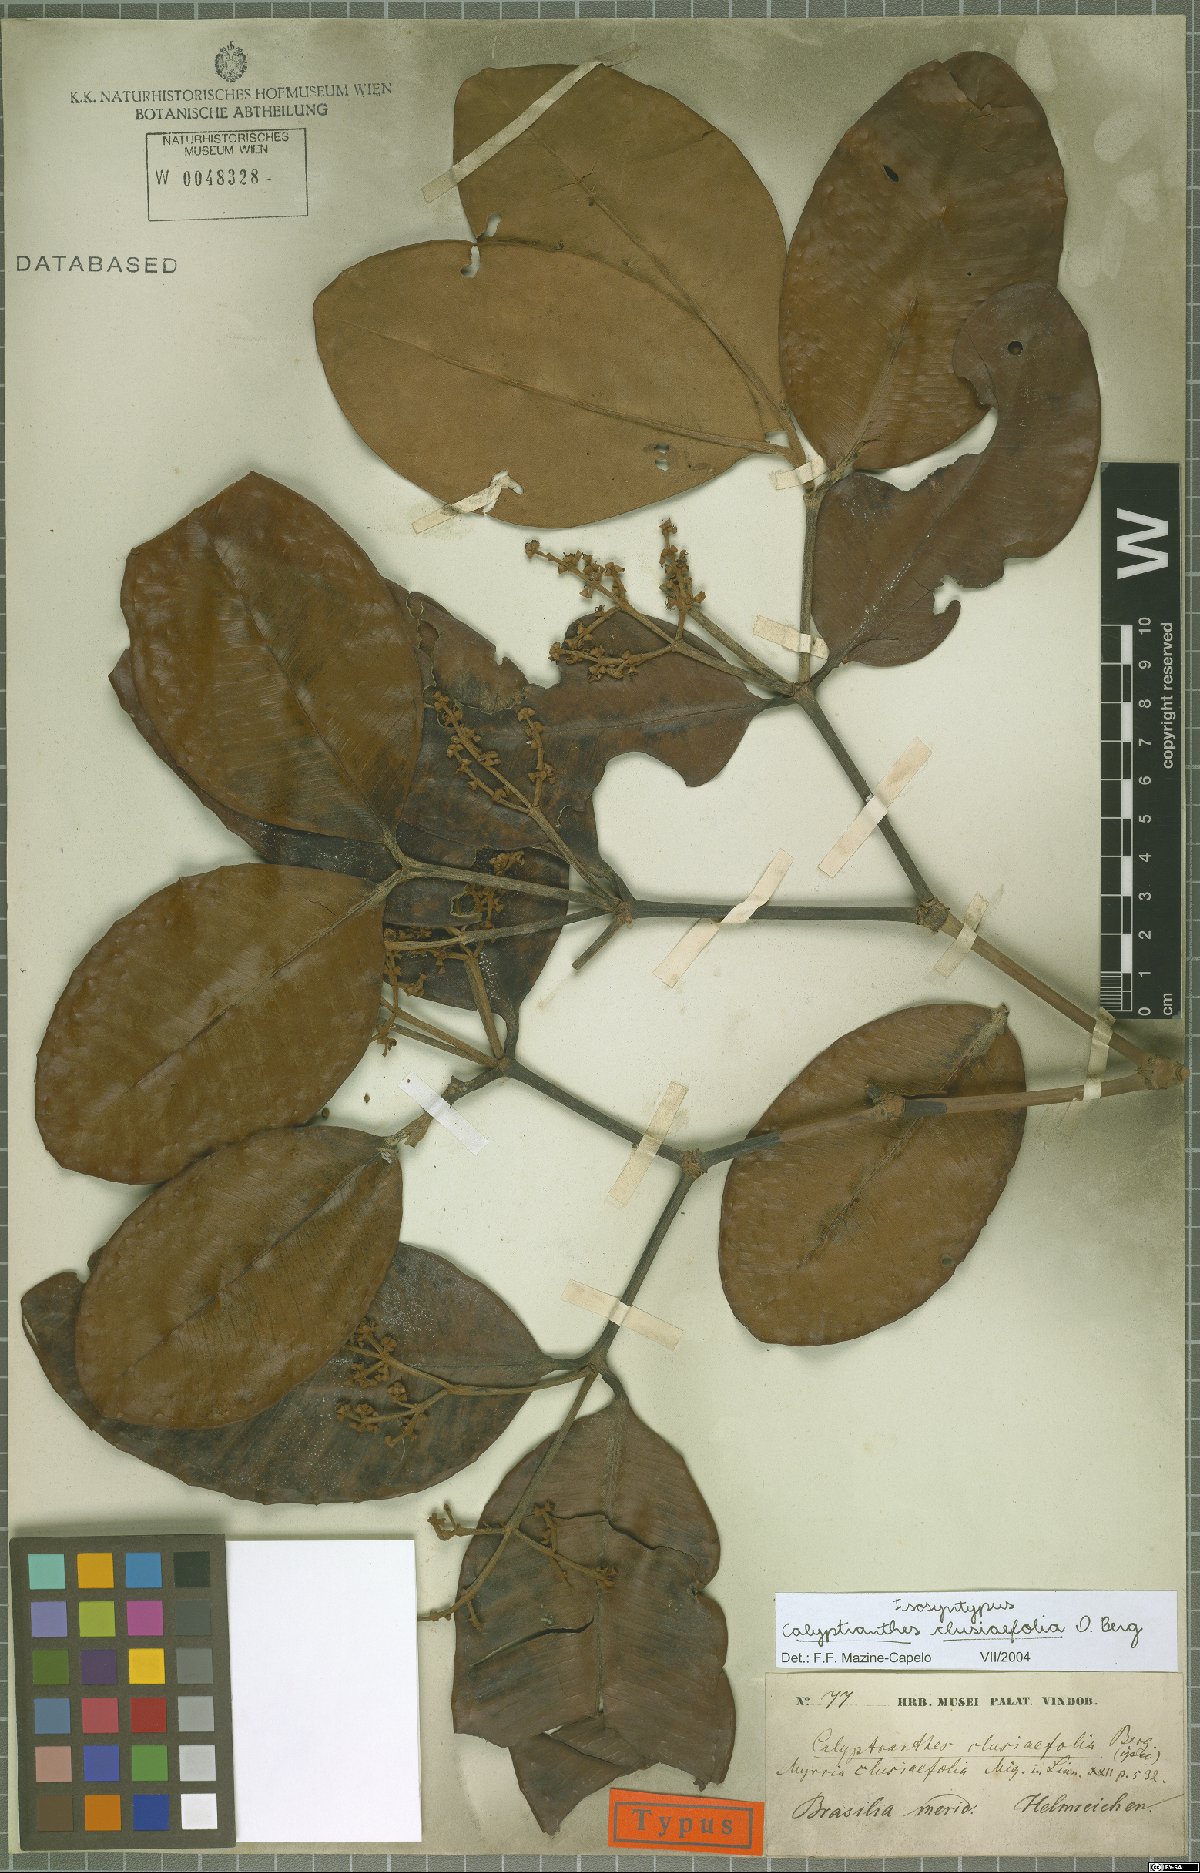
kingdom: Plantae
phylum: Tracheophyta
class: Magnoliopsida
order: Myrtales
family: Myrtaceae
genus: Myrcia
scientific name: Myrcia neoclusiifolia
